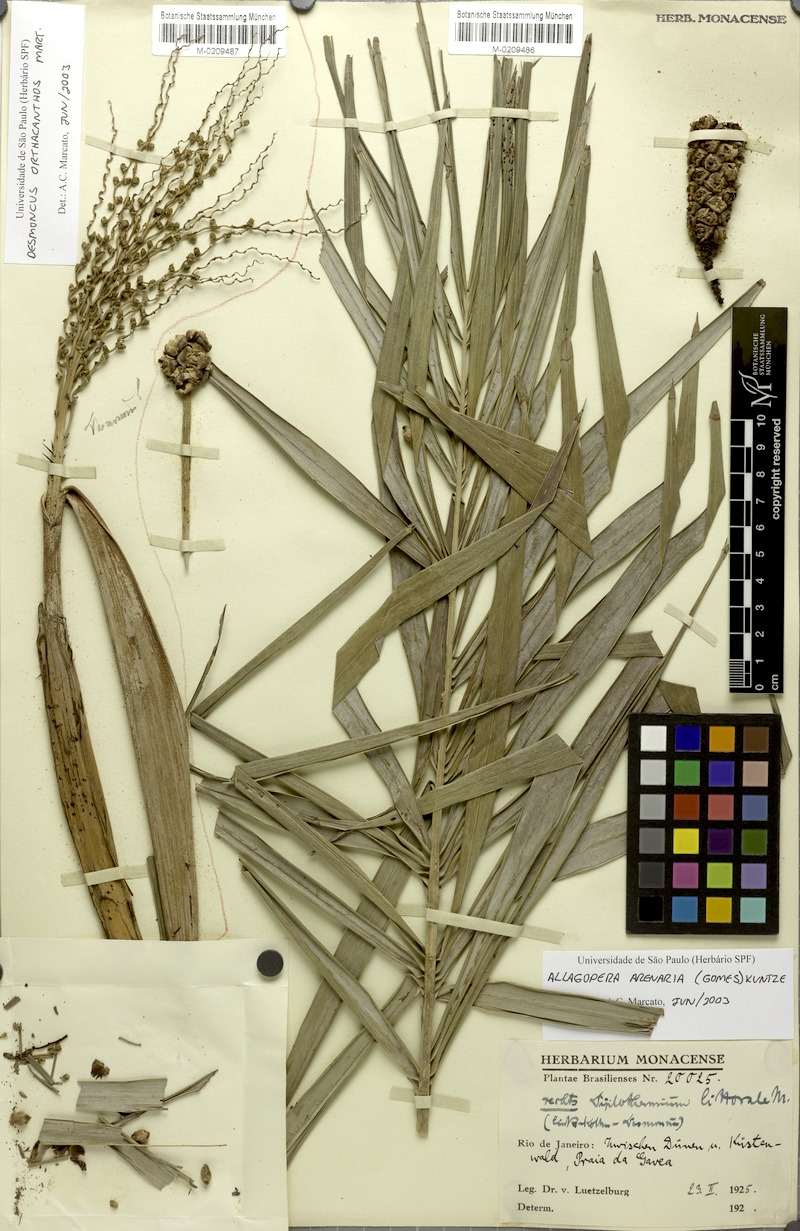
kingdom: Plantae
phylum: Tracheophyta
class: Liliopsida
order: Arecales
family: Arecaceae
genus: Allagoptera
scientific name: Allagoptera arenaria
